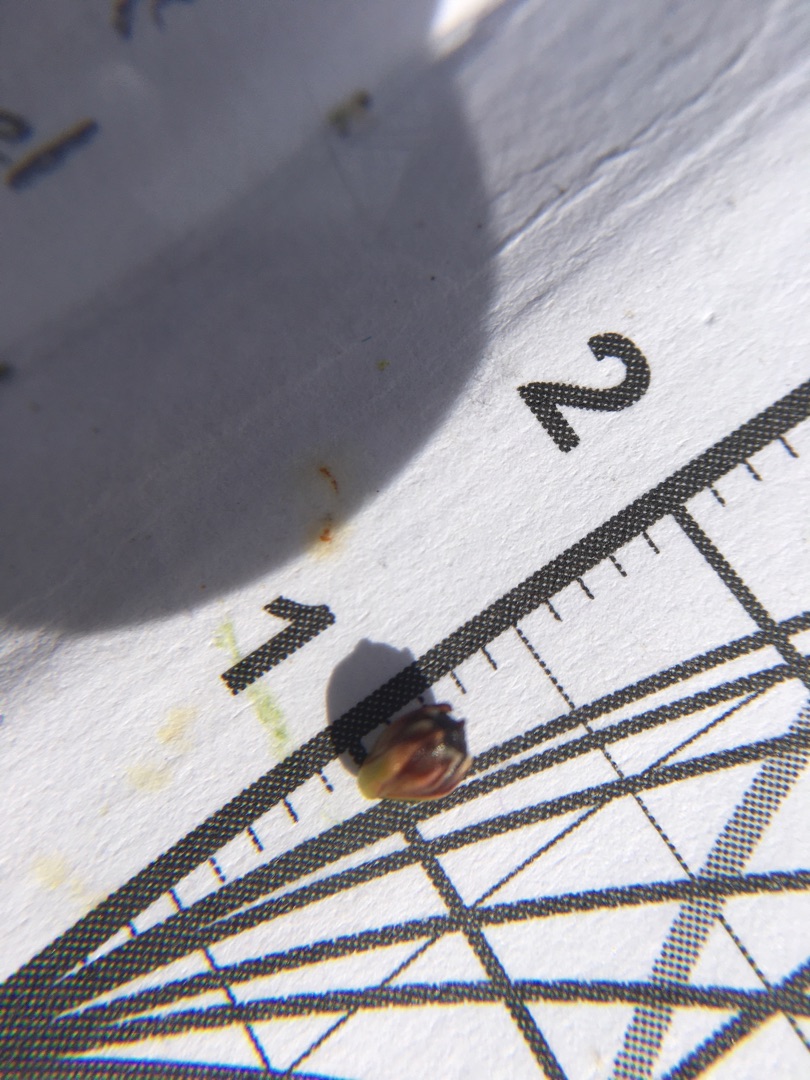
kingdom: Plantae
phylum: Tracheophyta
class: Liliopsida
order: Poales
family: Juncaceae
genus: Juncus
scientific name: Juncus gerardi
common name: Harril
